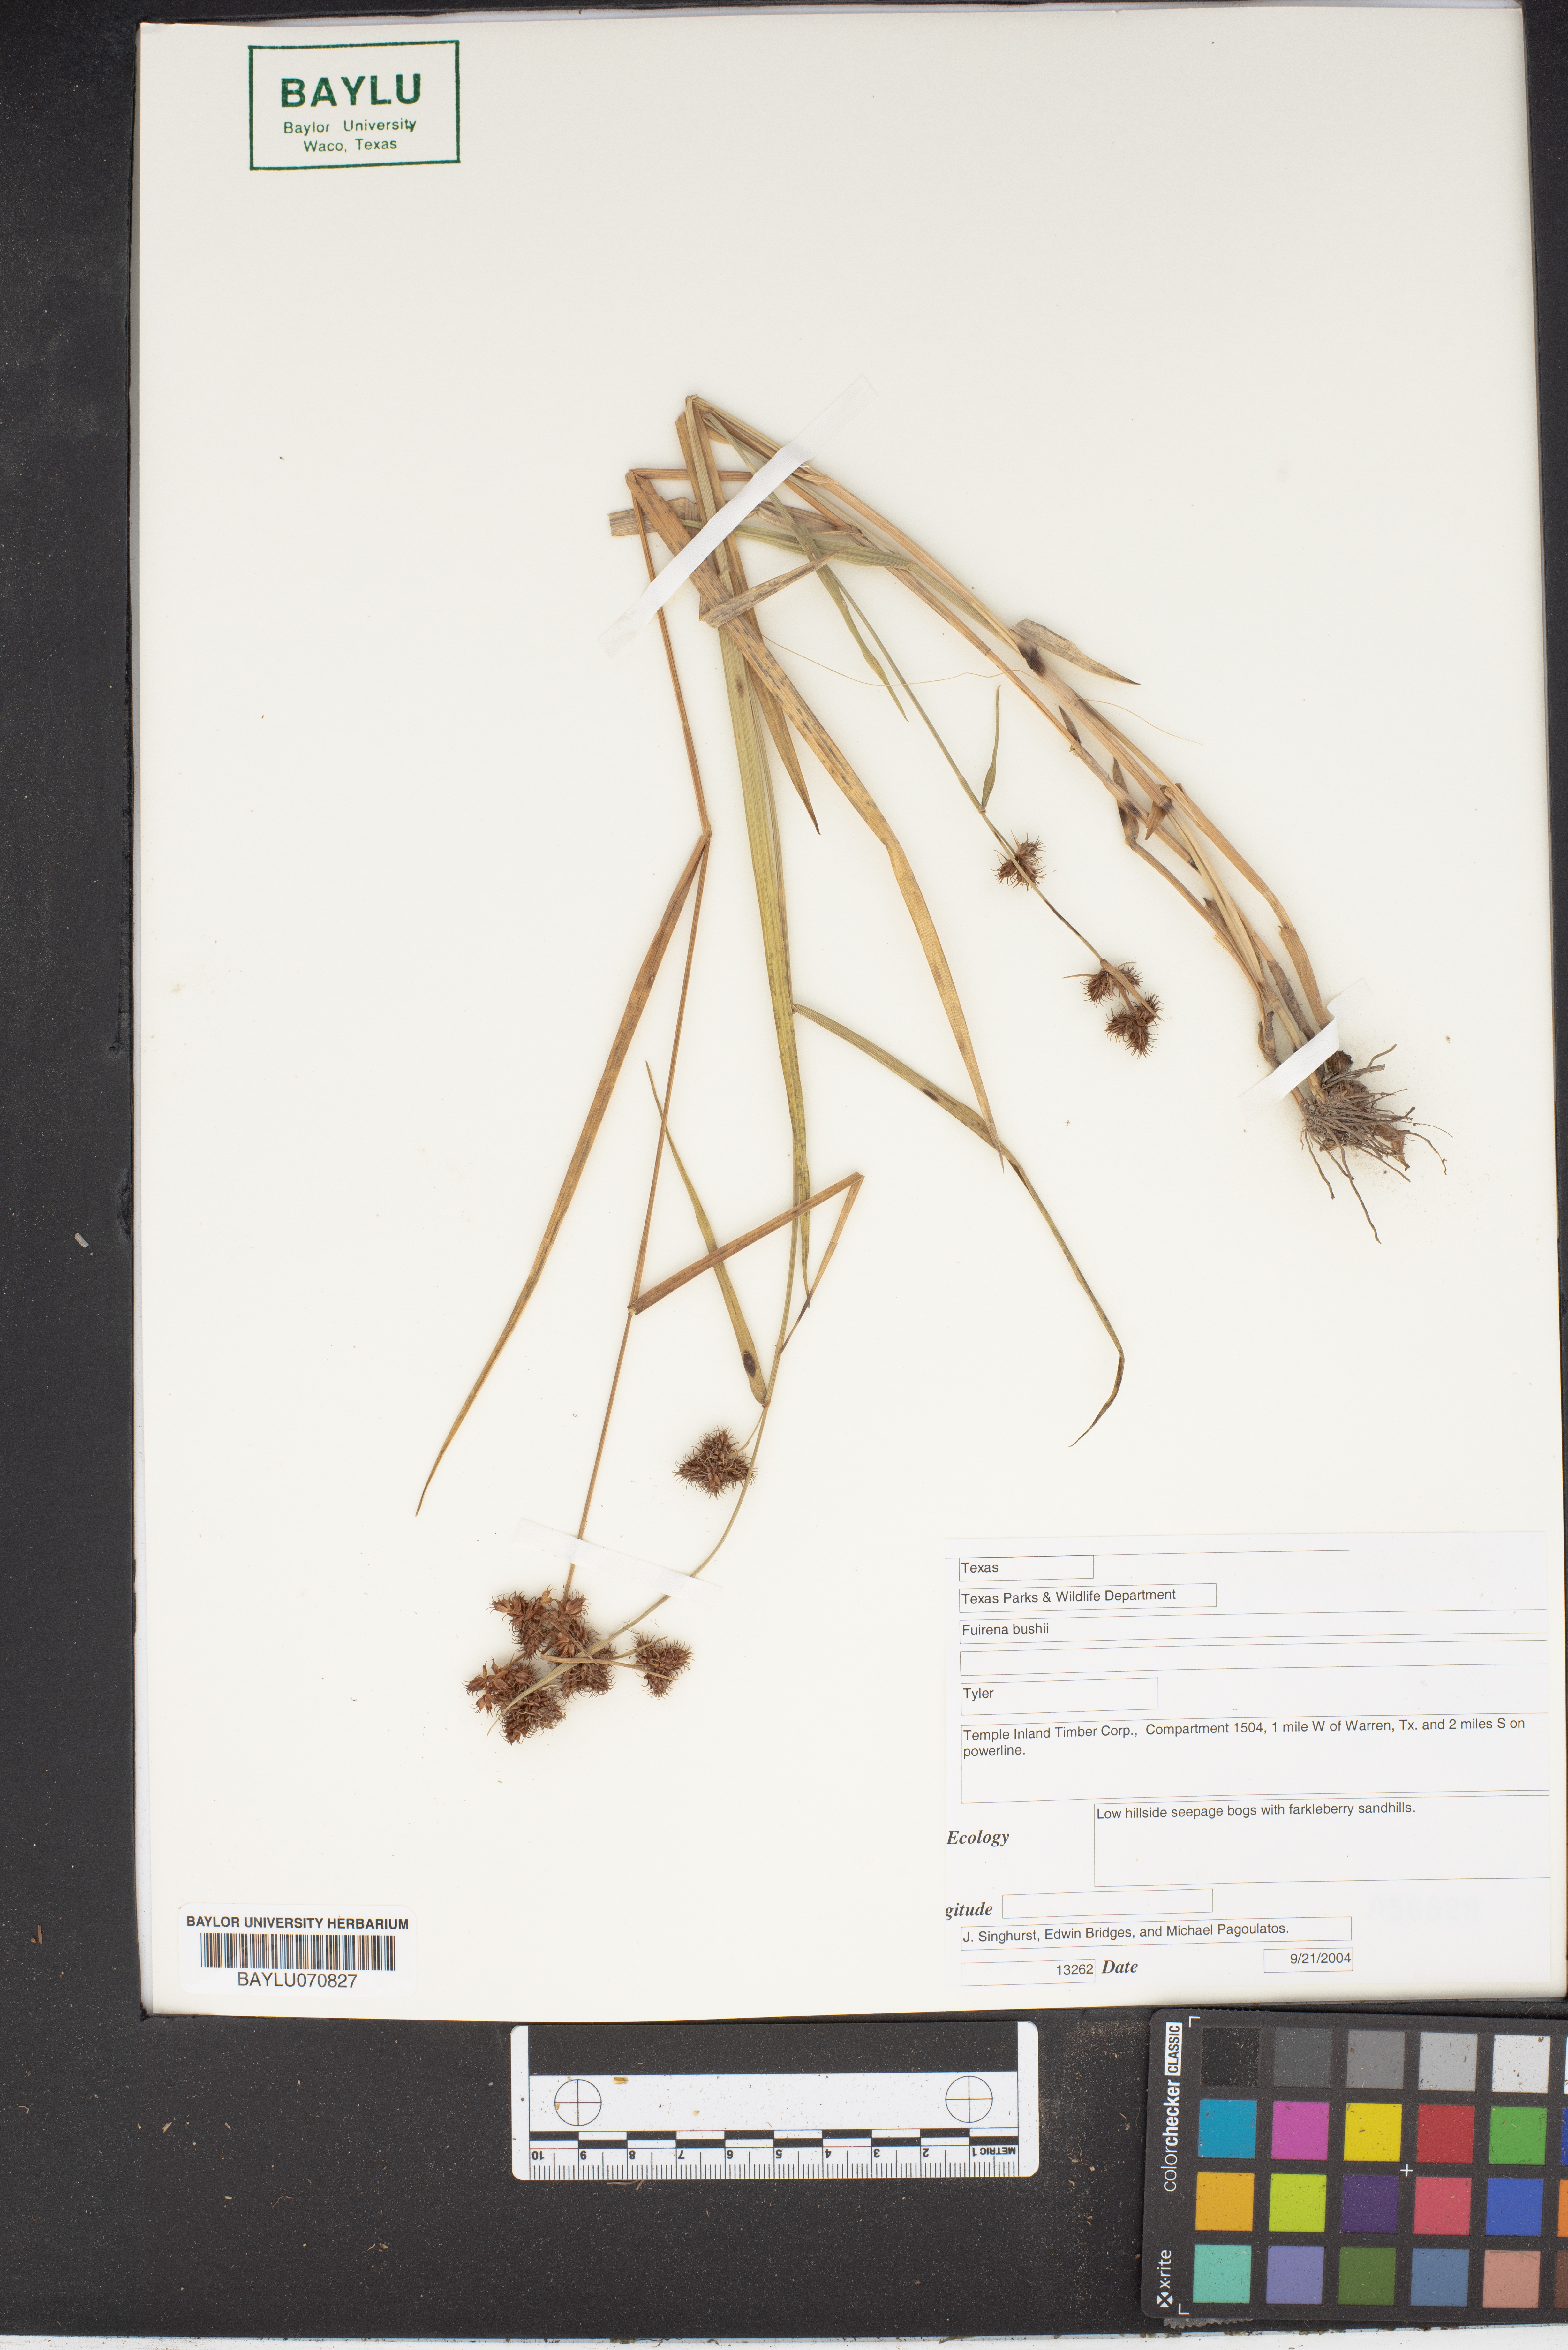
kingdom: Plantae
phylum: Tracheophyta
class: Liliopsida
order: Poales
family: Cyperaceae
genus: Fuirena
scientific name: Fuirena bushii
